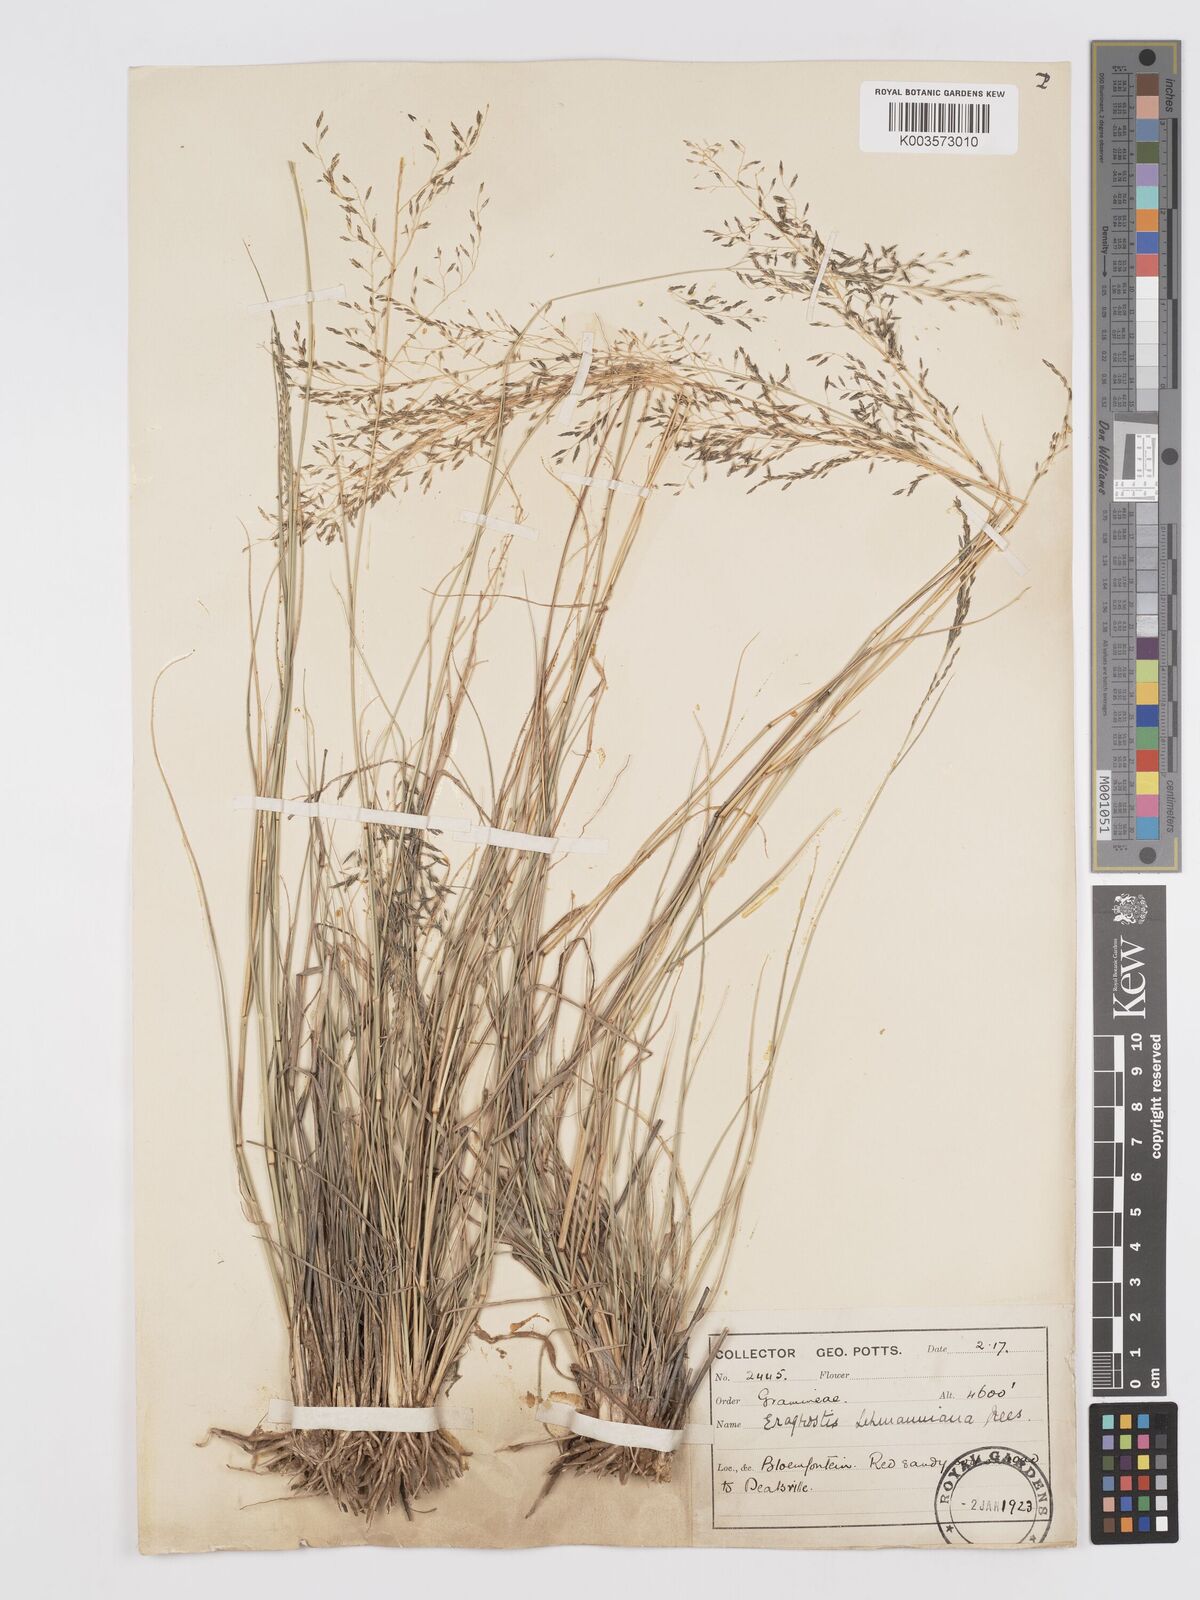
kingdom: Plantae
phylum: Tracheophyta
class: Liliopsida
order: Poales
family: Poaceae
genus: Eragrostis
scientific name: Eragrostis curvula
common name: African love-grass
